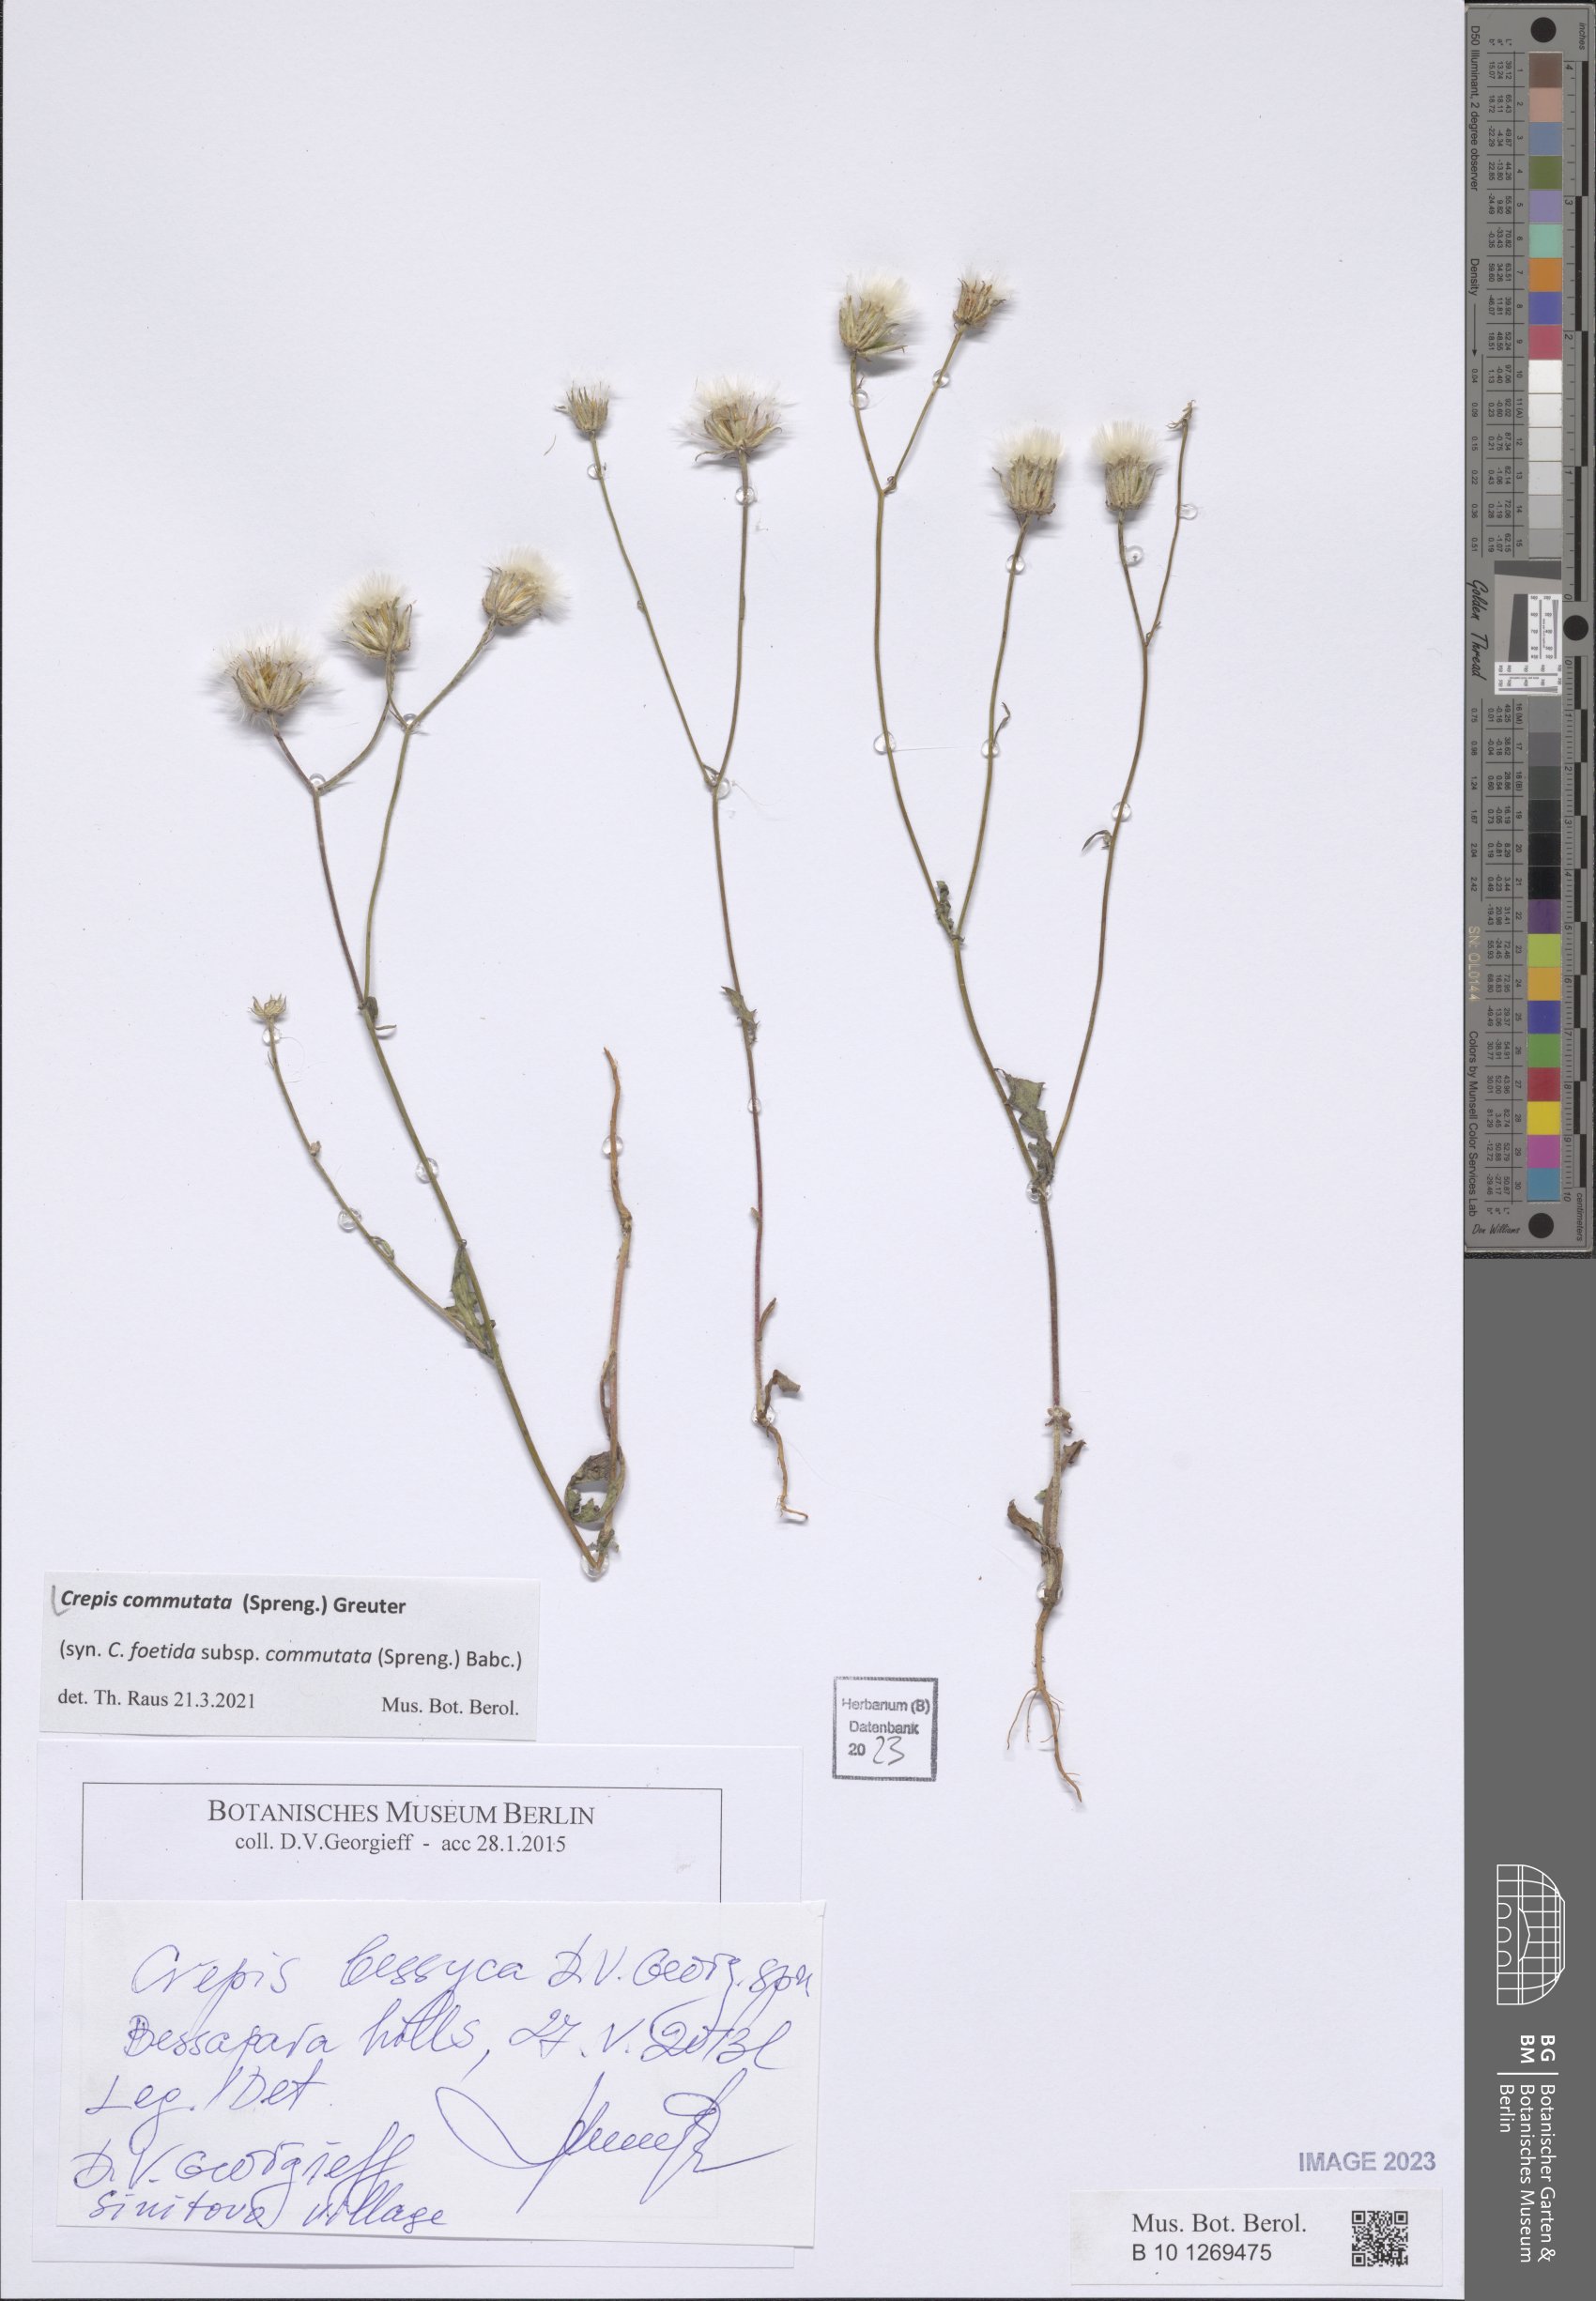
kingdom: Plantae
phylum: Tracheophyta
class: Magnoliopsida
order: Asterales
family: Asteraceae
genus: Crepis
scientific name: Crepis commutata
